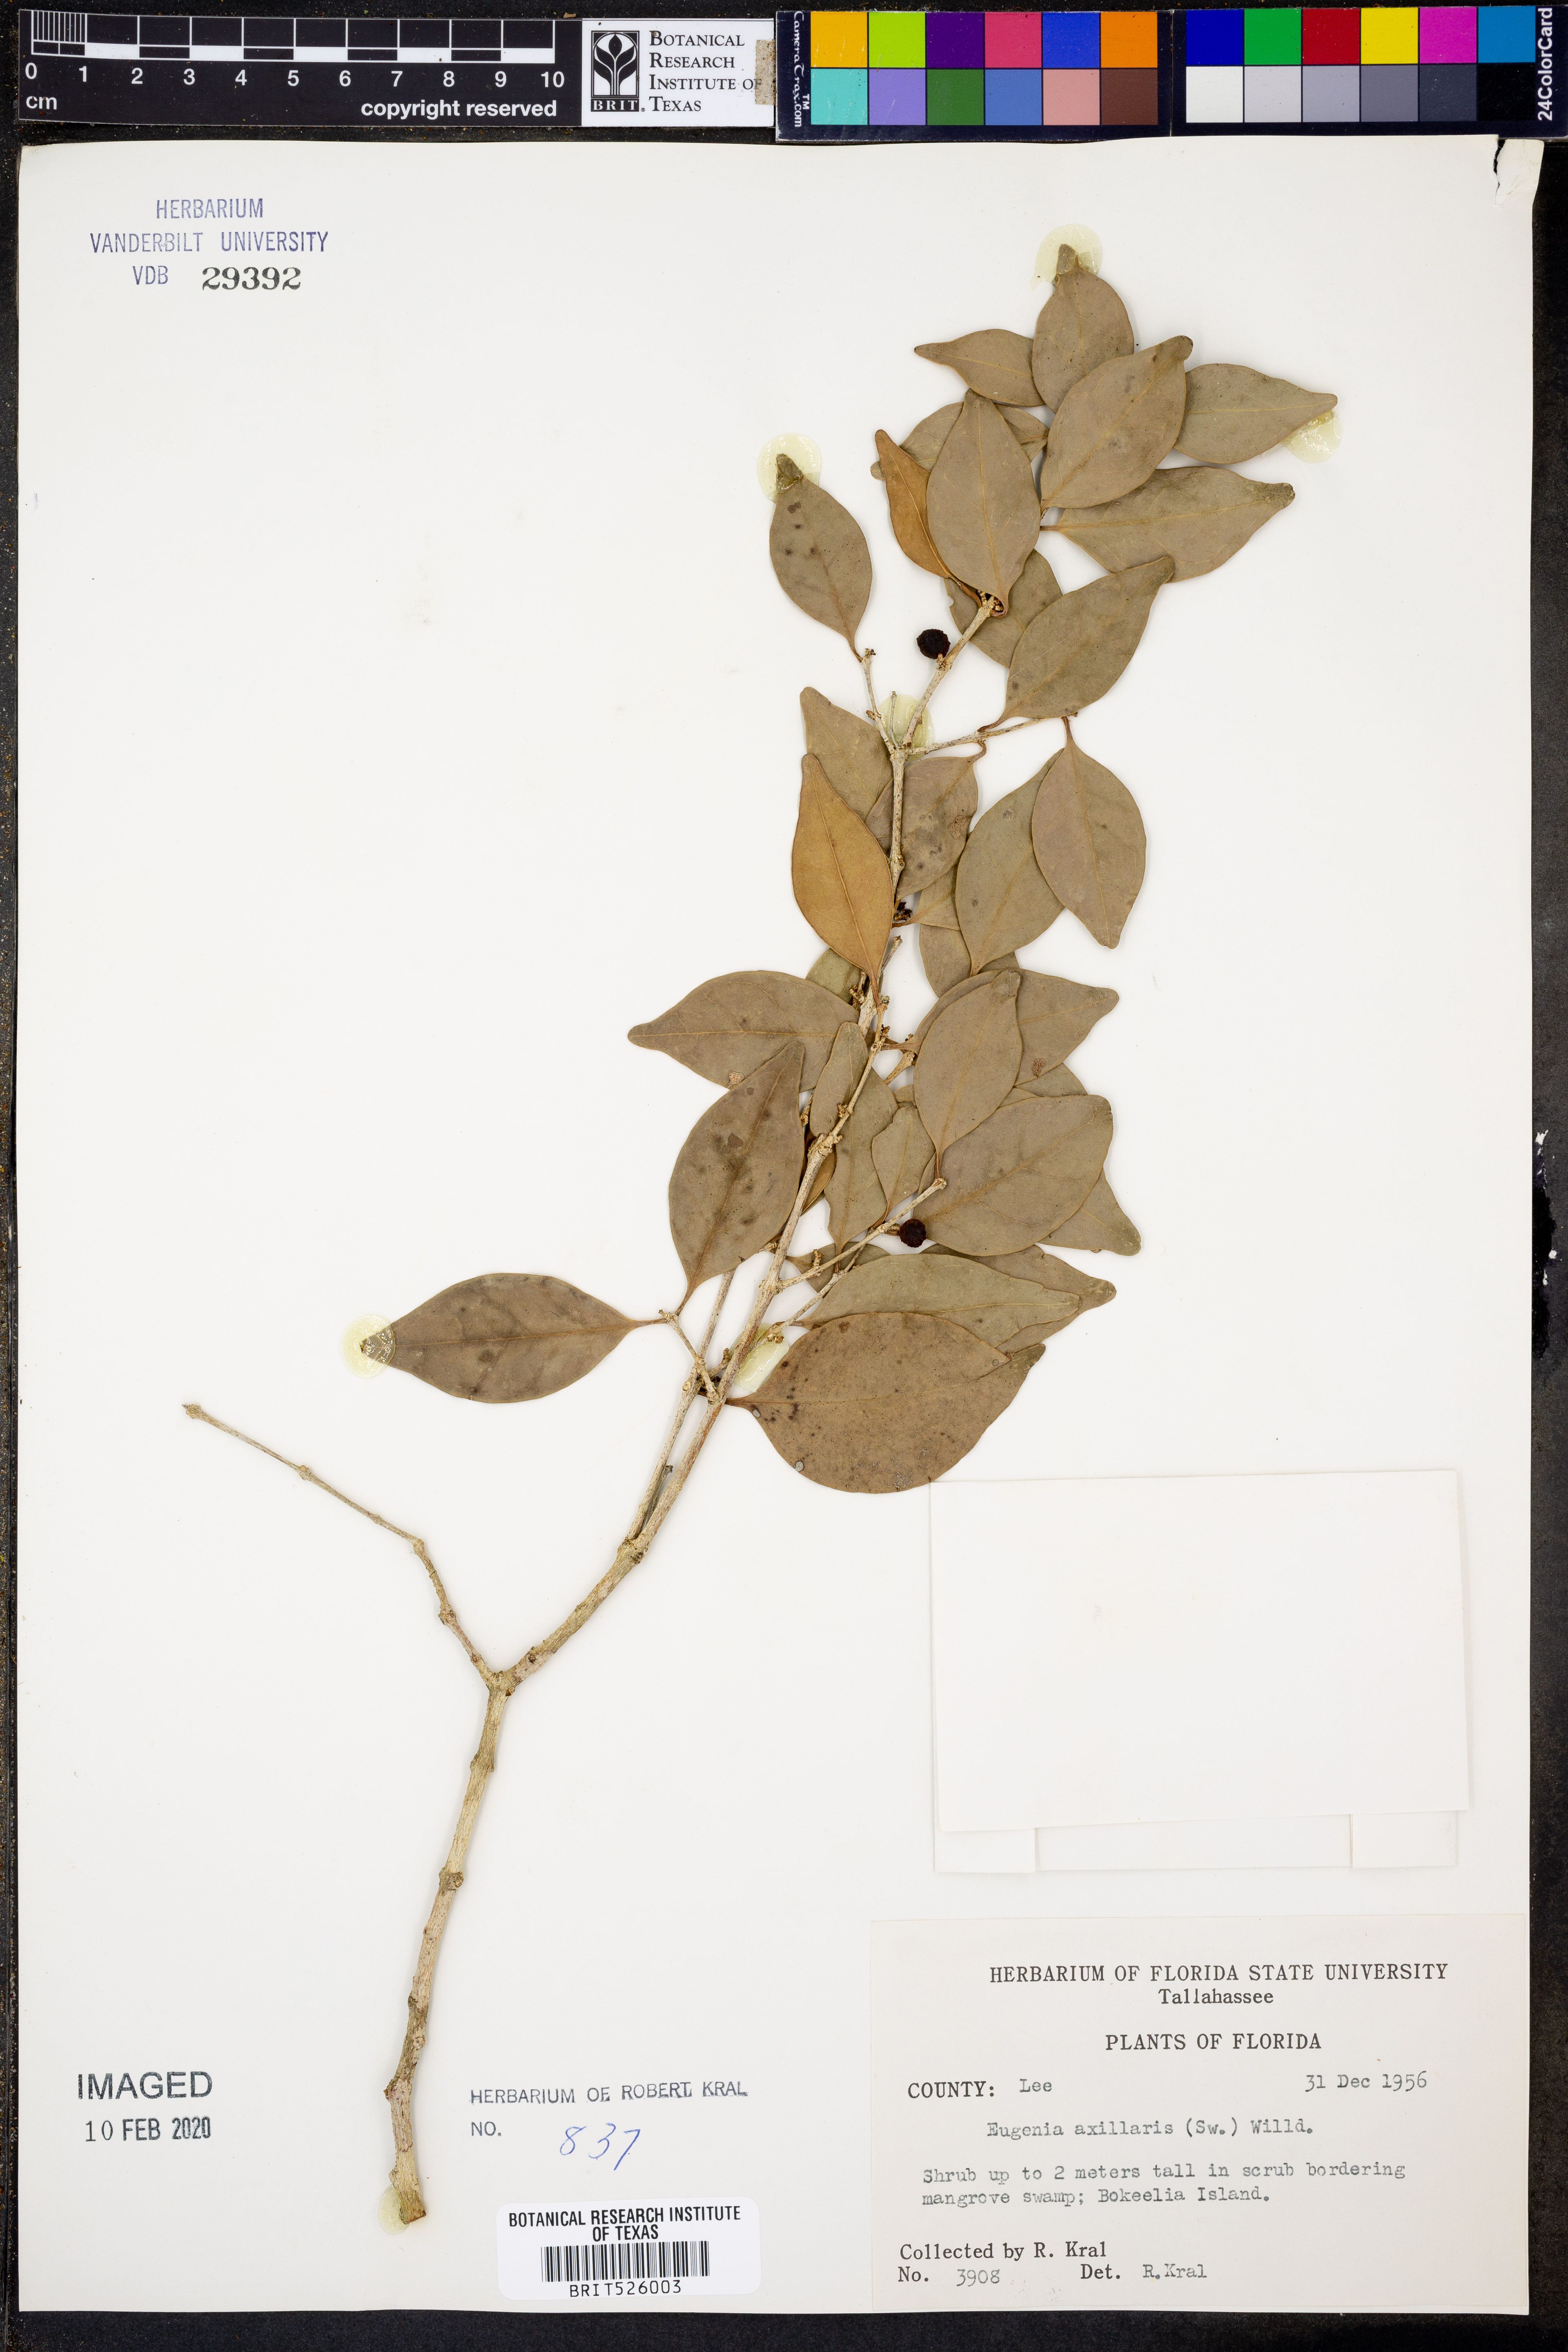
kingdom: Plantae
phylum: Tracheophyta
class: Magnoliopsida
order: Myrtales
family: Myrtaceae
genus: Eugenia
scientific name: Eugenia axillaris
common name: Choaky berry
